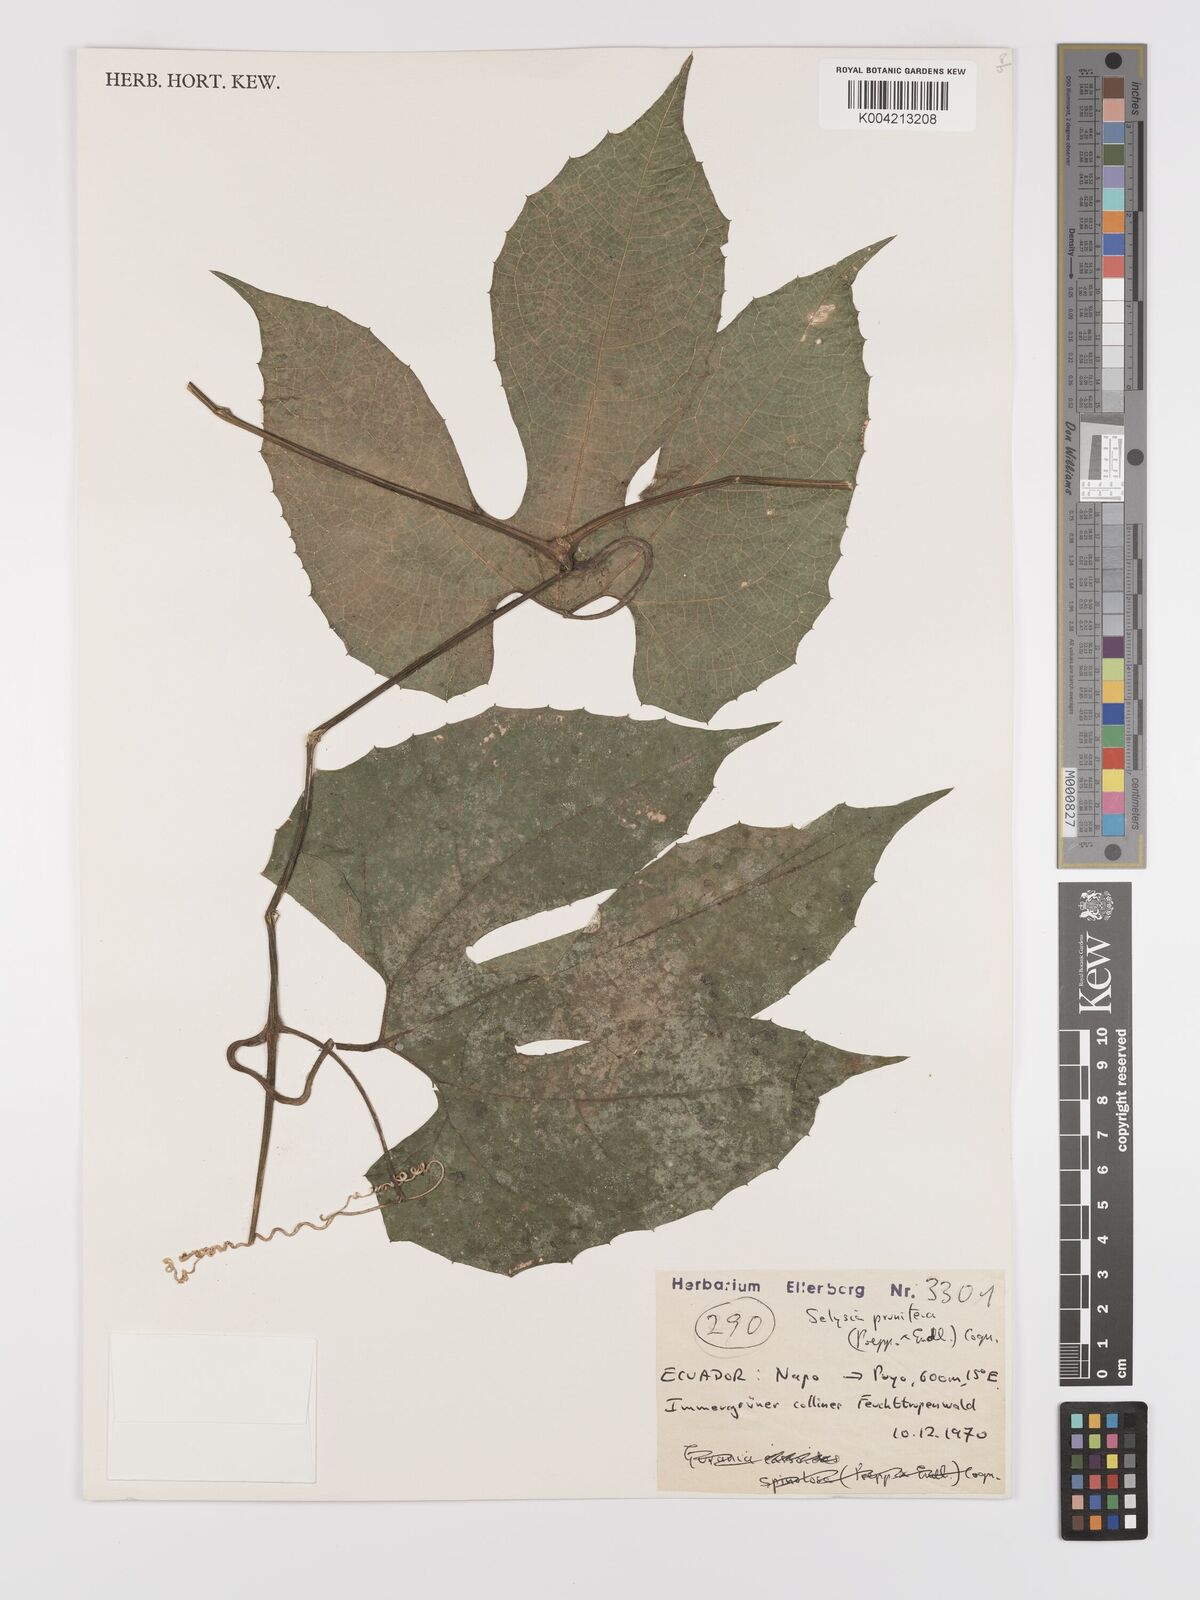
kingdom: Plantae
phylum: Tracheophyta
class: Magnoliopsida
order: Cucurbitales
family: Cucurbitaceae
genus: Cayaponia
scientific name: Cayaponia prunifera
